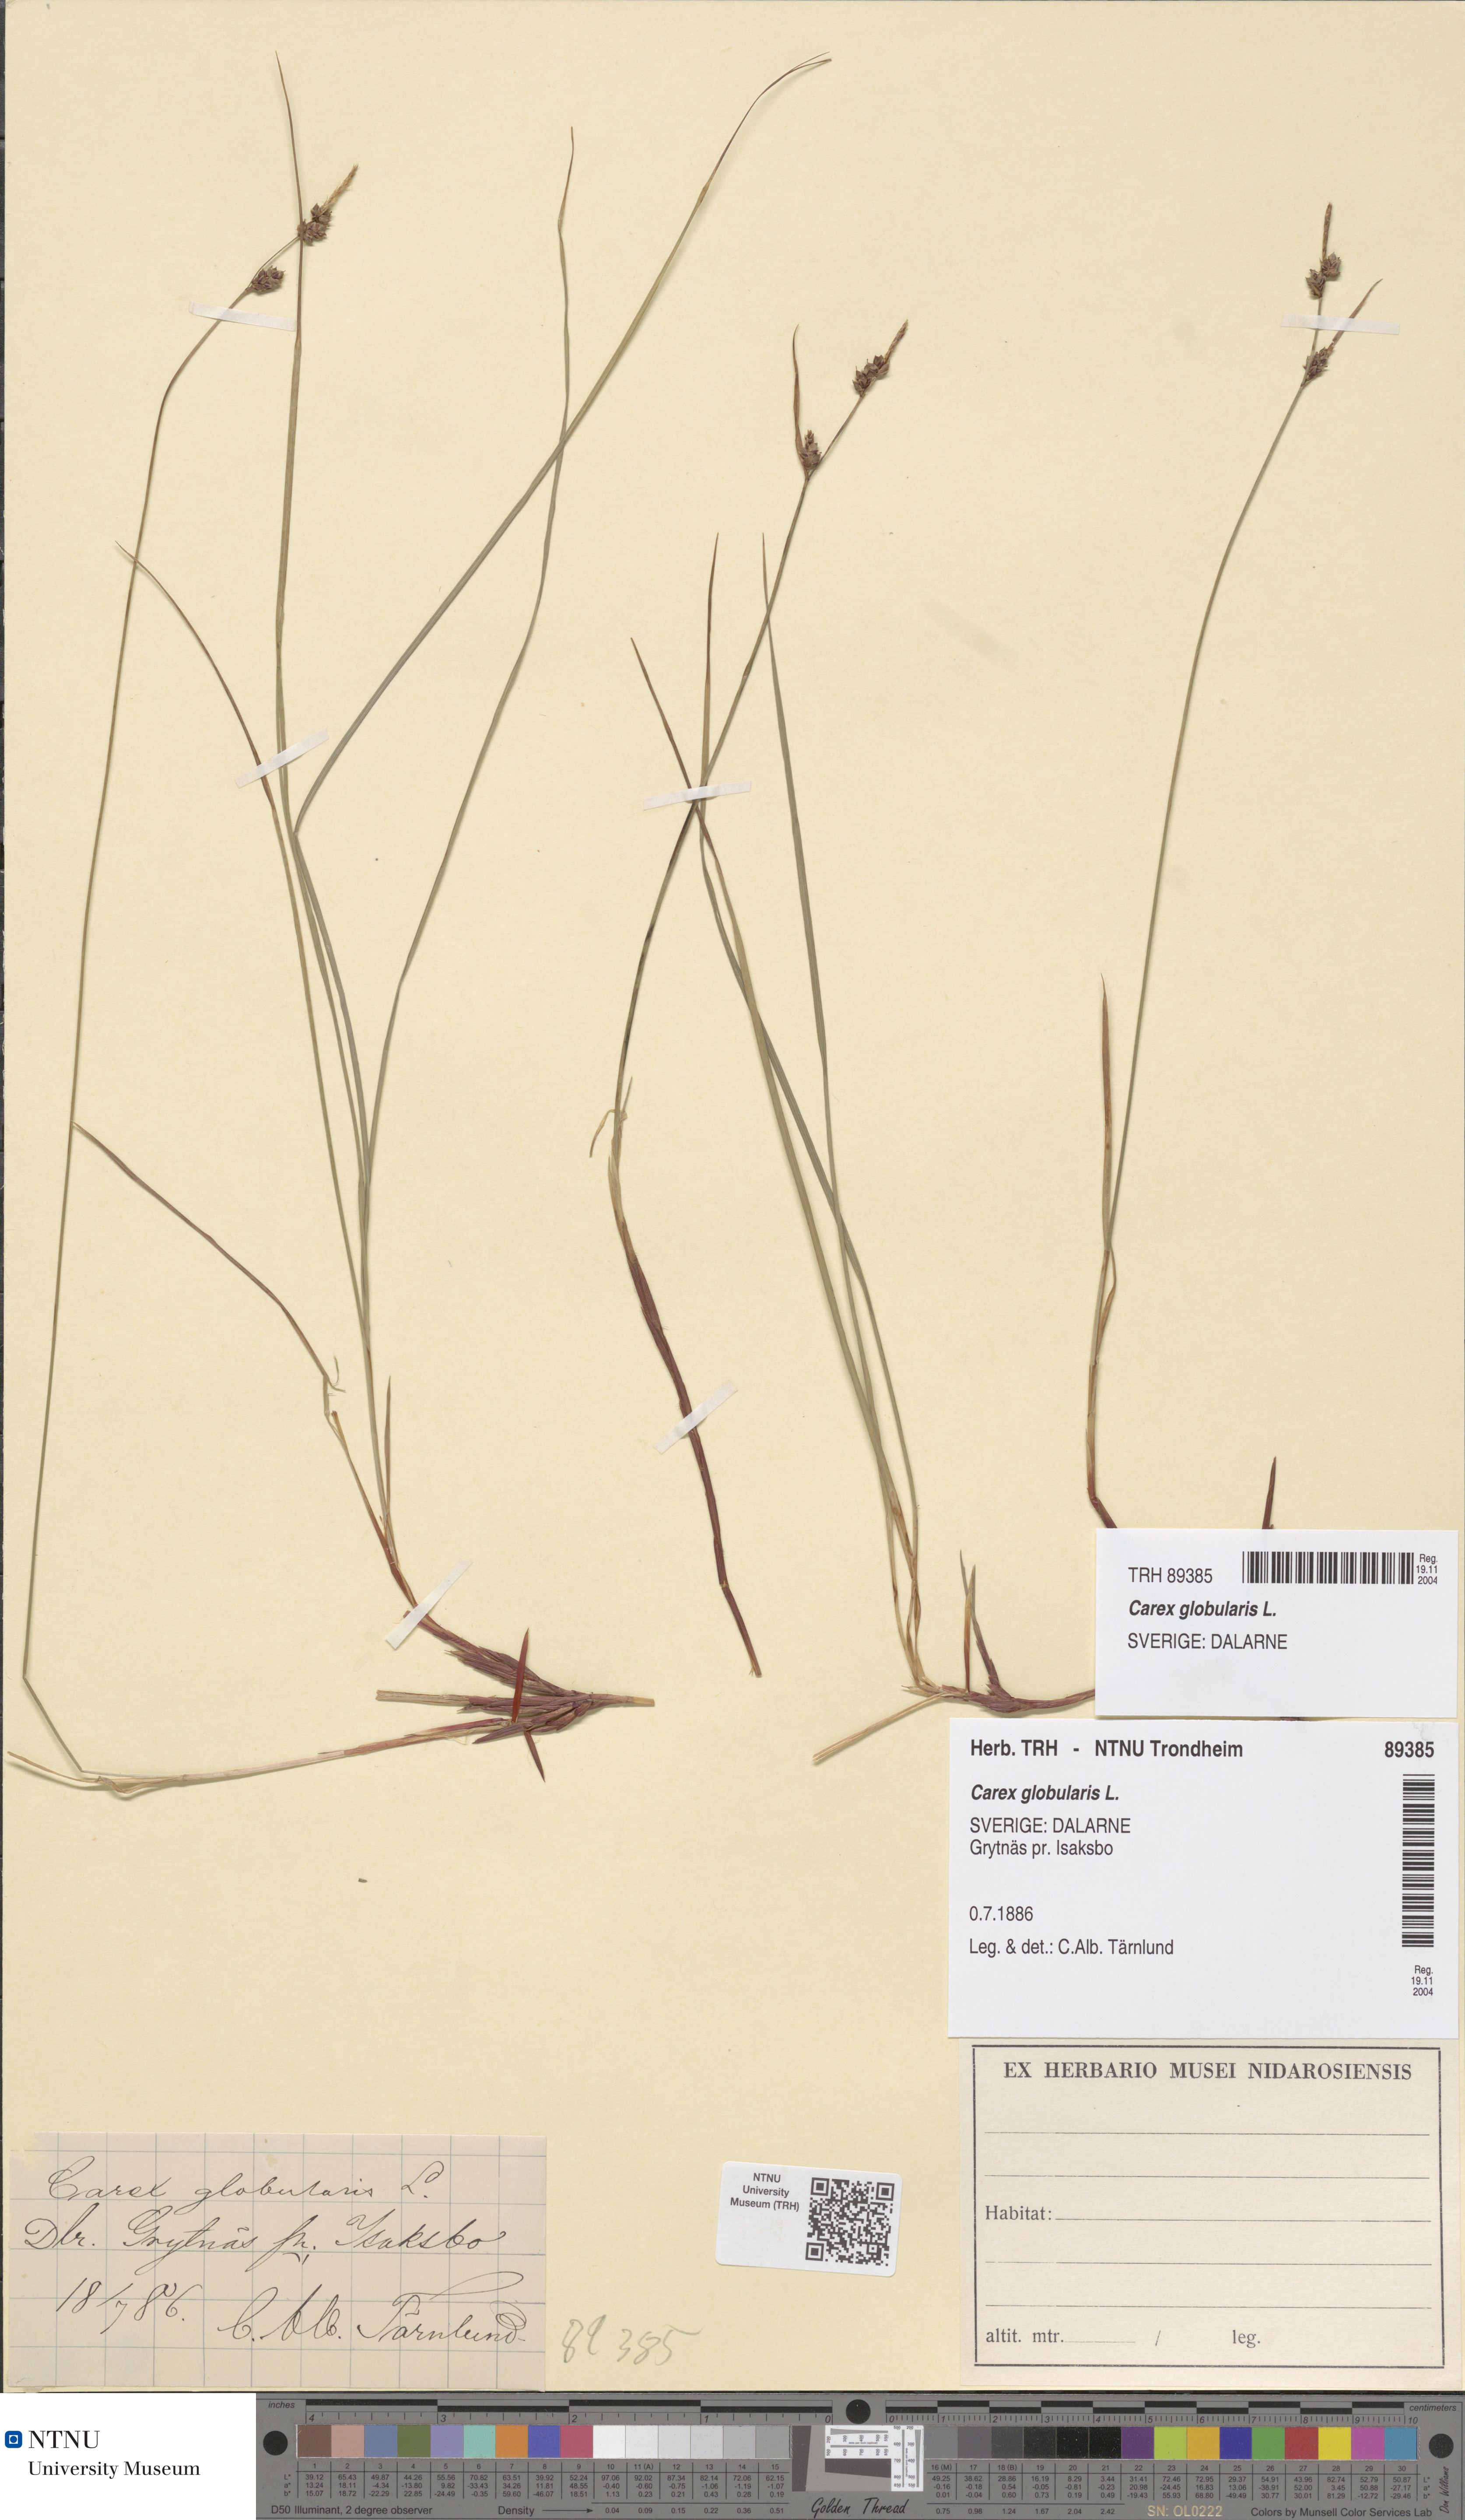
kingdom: Plantae
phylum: Tracheophyta
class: Liliopsida
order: Poales
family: Cyperaceae
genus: Carex
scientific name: Carex globularis
